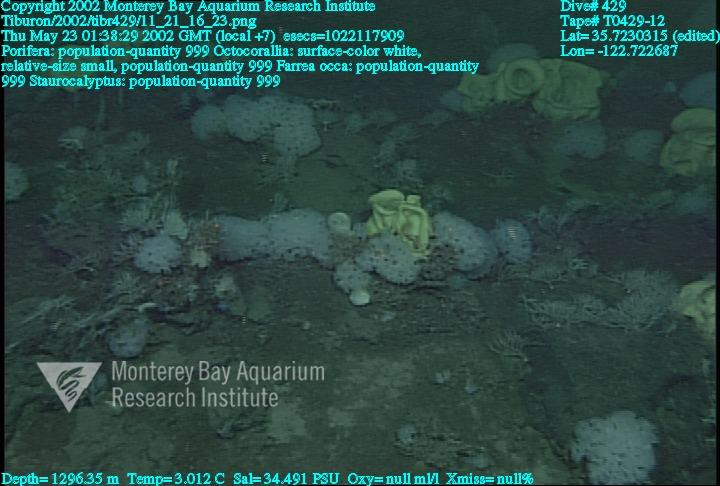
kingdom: Animalia
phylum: Porifera
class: Hexactinellida
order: Sceptrulophora
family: Farreidae
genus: Farrea
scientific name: Farrea occa
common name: Reversed glass sponge
